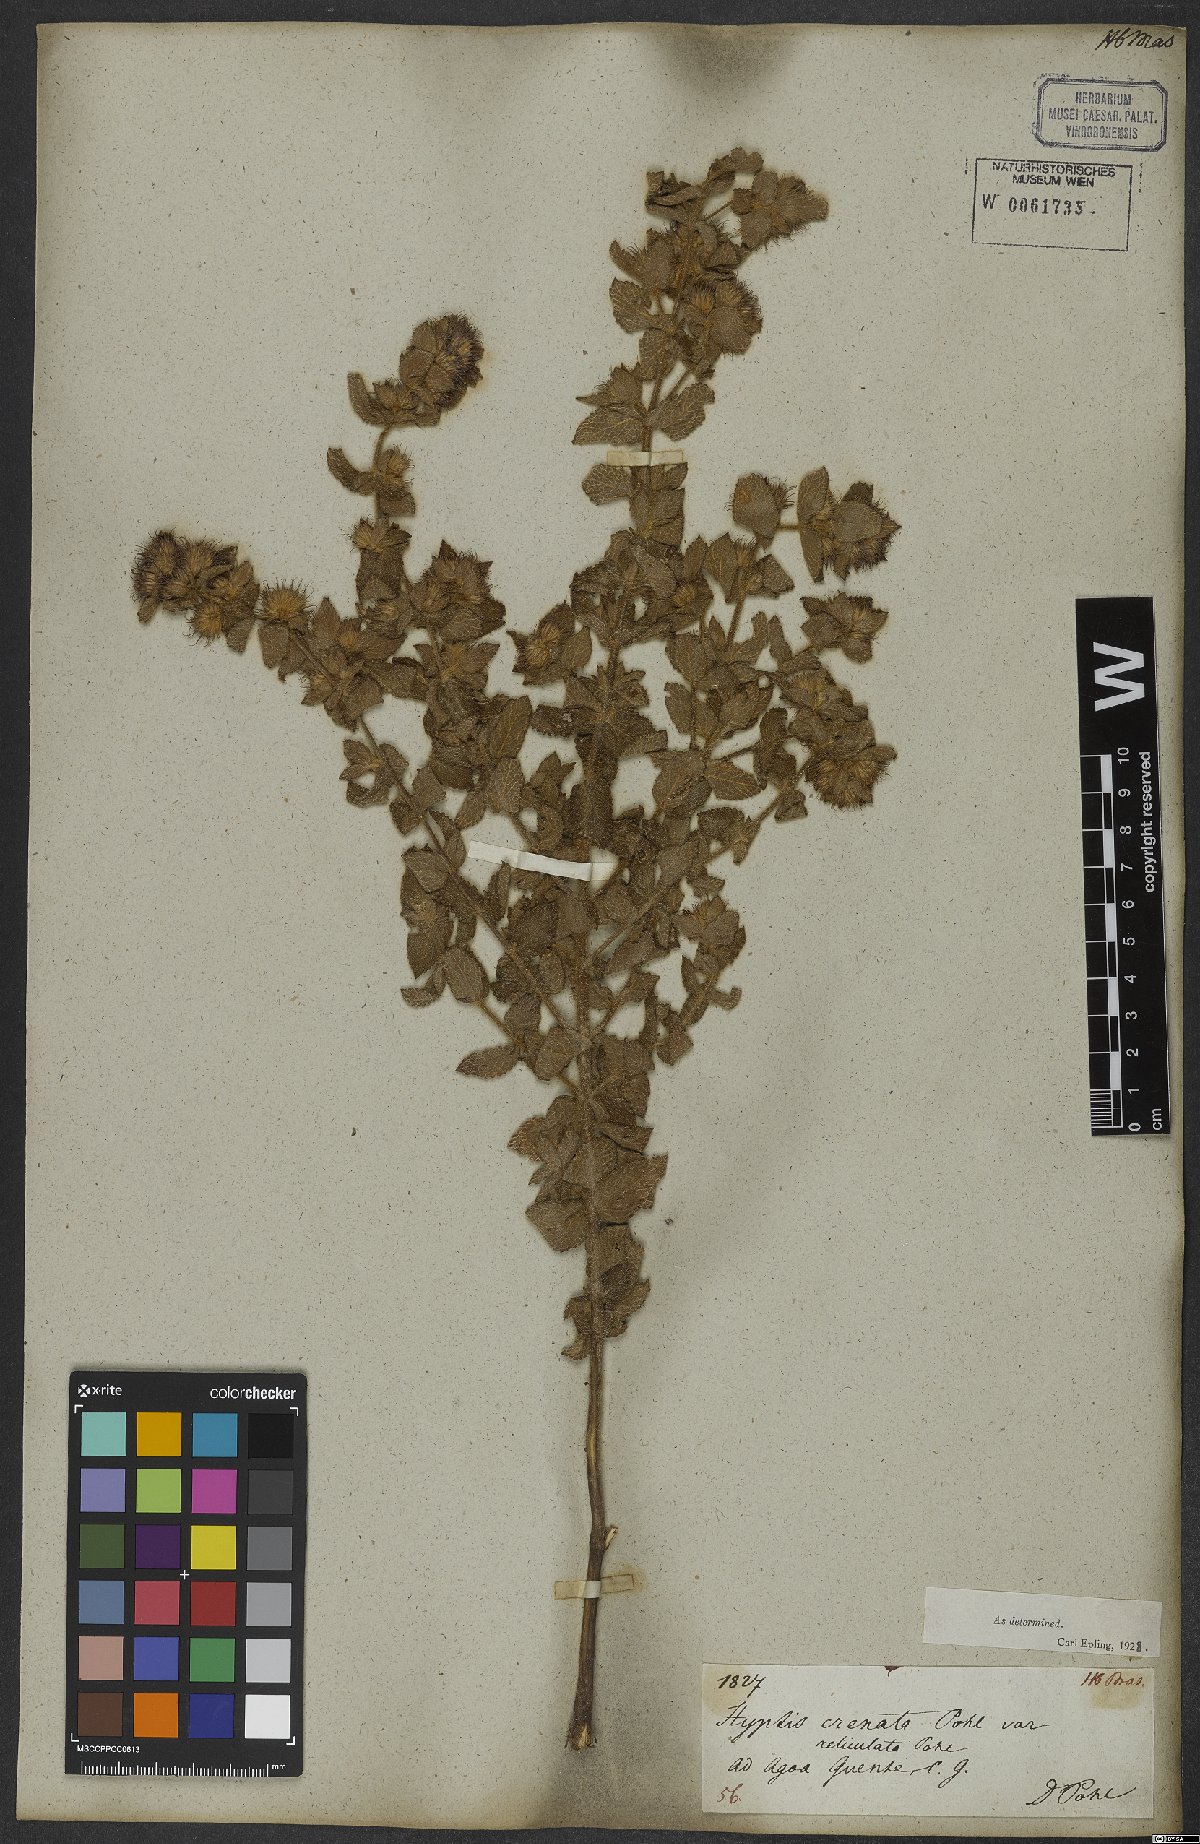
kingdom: Plantae
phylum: Tracheophyta
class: Magnoliopsida
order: Lamiales
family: Lamiaceae
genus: Hyptis
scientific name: Hyptis crenata
